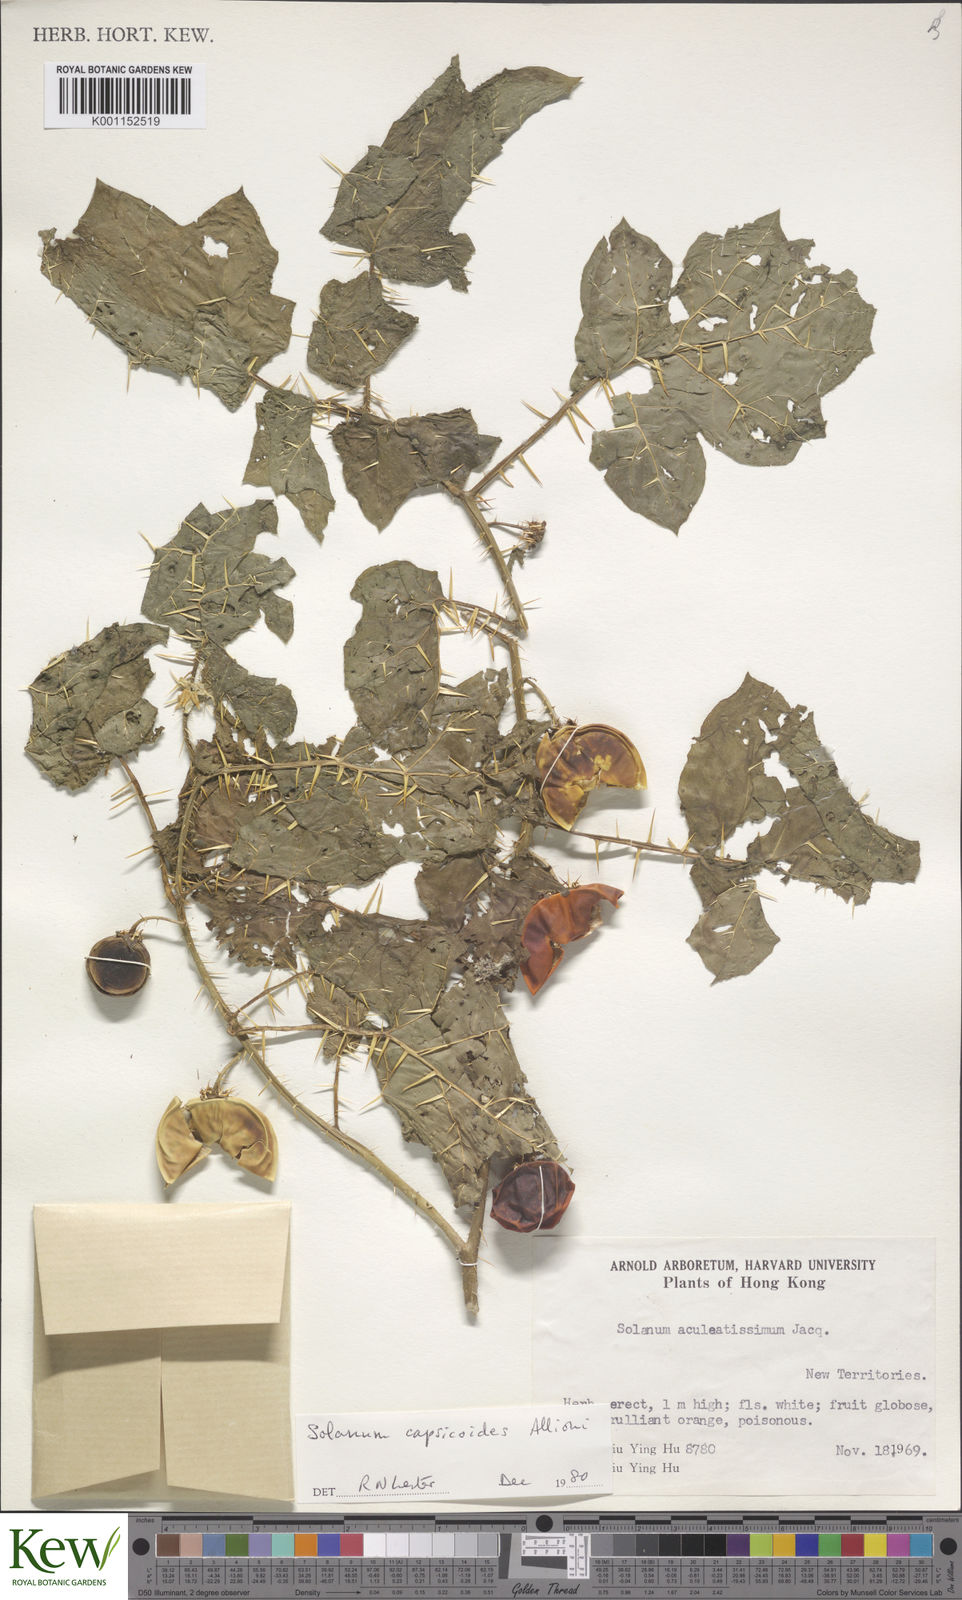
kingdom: Plantae
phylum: Tracheophyta
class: Magnoliopsida
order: Solanales
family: Solanaceae
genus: Solanum
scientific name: Solanum capsicoides
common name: Cockroach berry
